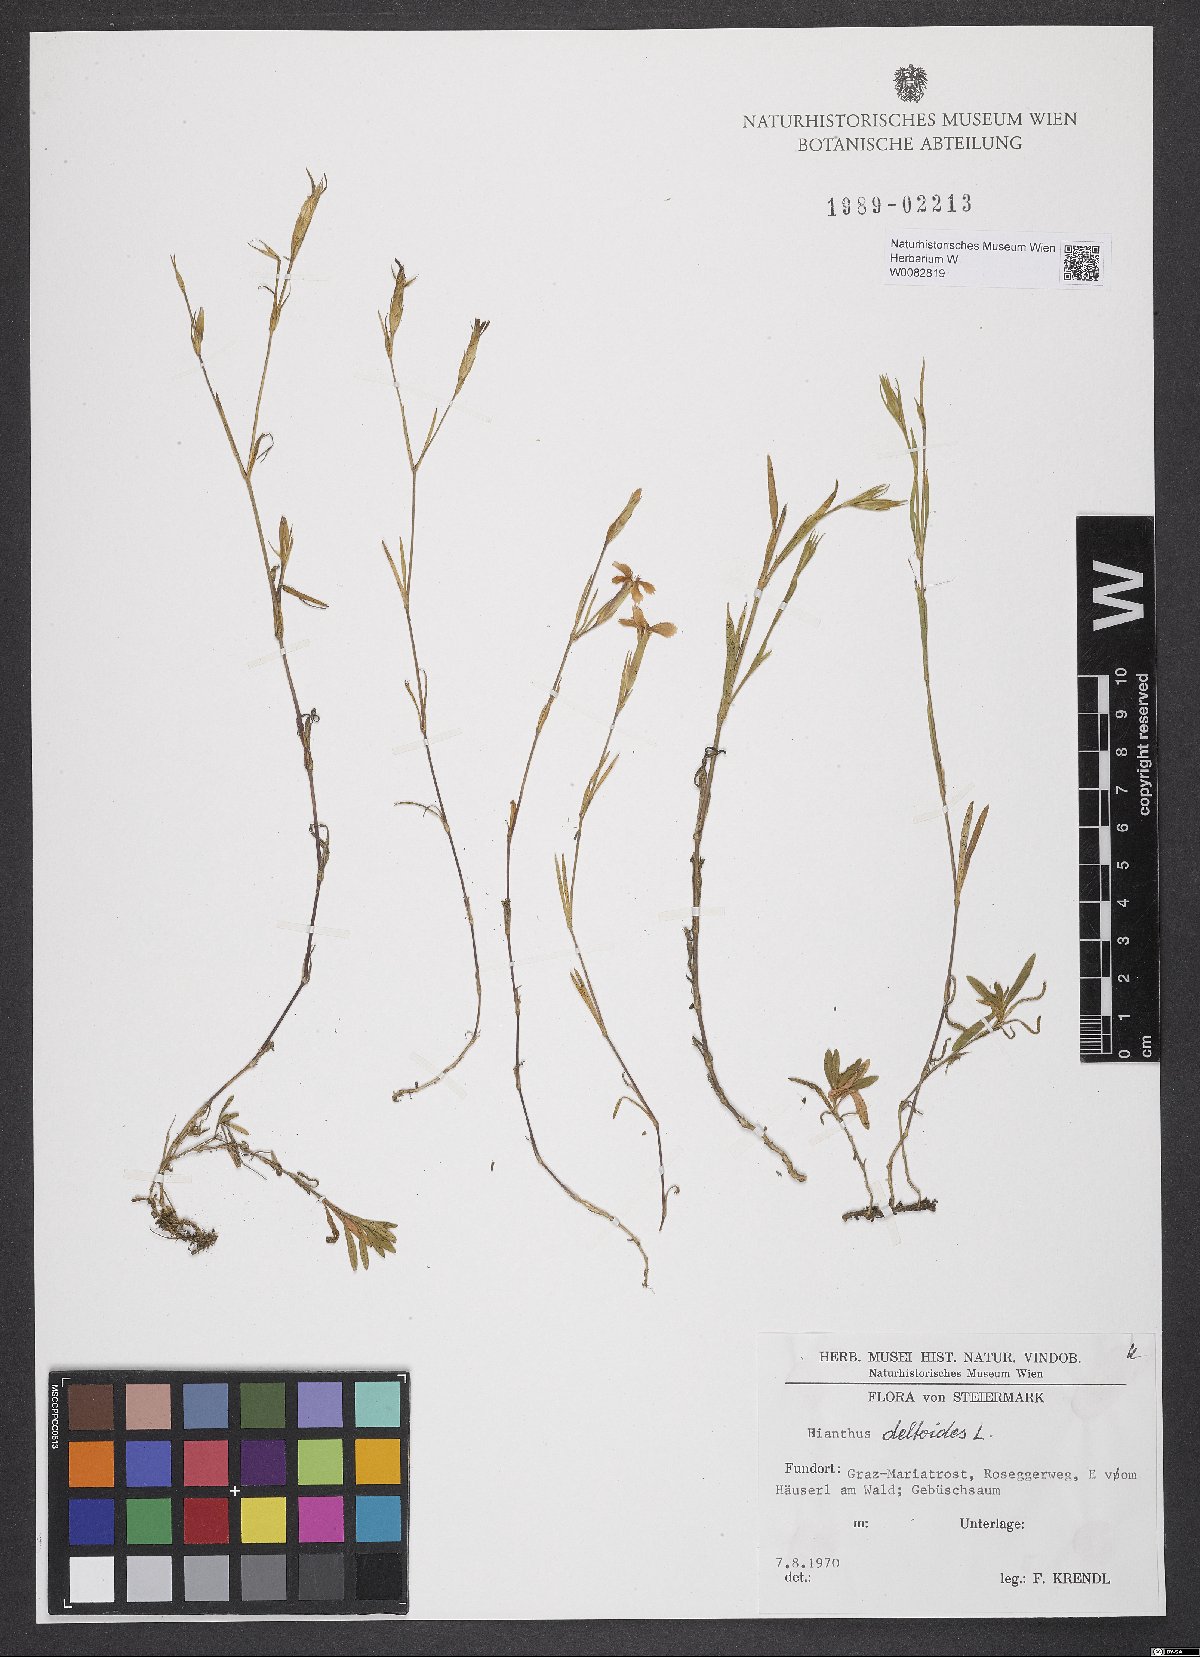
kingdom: Plantae
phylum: Tracheophyta
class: Magnoliopsida
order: Caryophyllales
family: Caryophyllaceae
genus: Dianthus
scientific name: Dianthus deltoides
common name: Maiden pink
